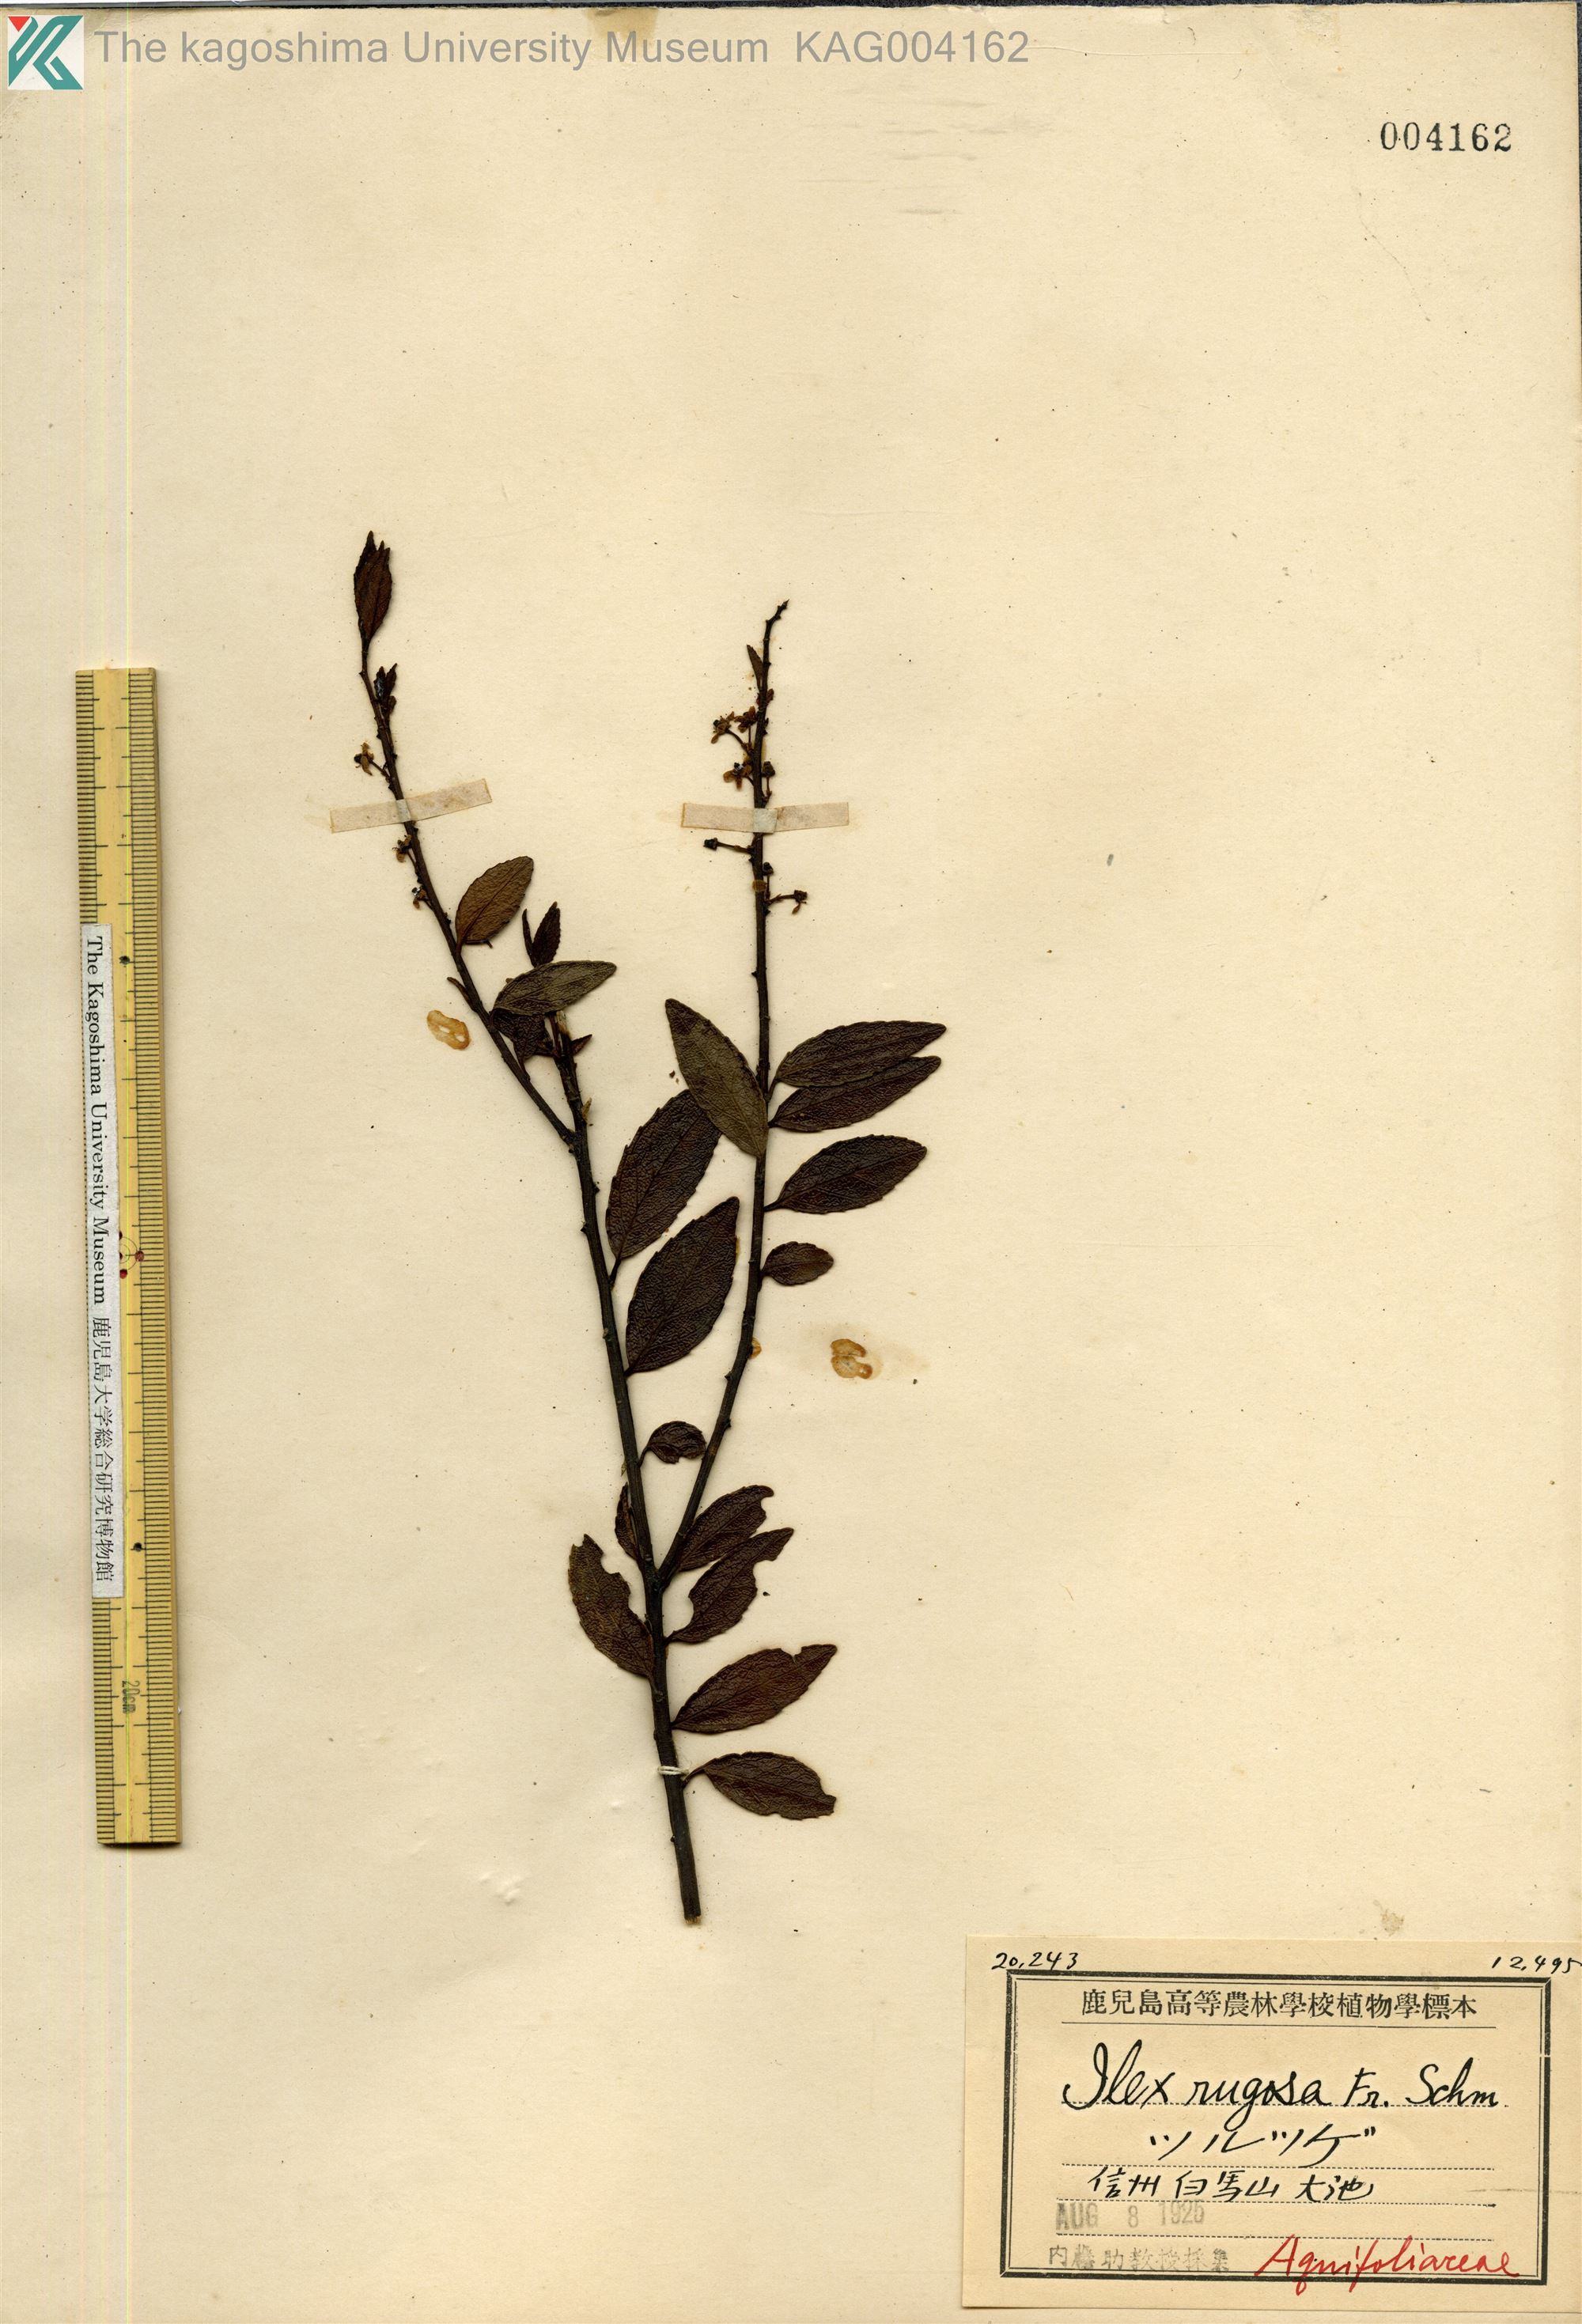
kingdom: Plantae
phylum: Tracheophyta
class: Magnoliopsida
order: Aquifoliales
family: Aquifoliaceae
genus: Ilex
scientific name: Ilex rugosa
